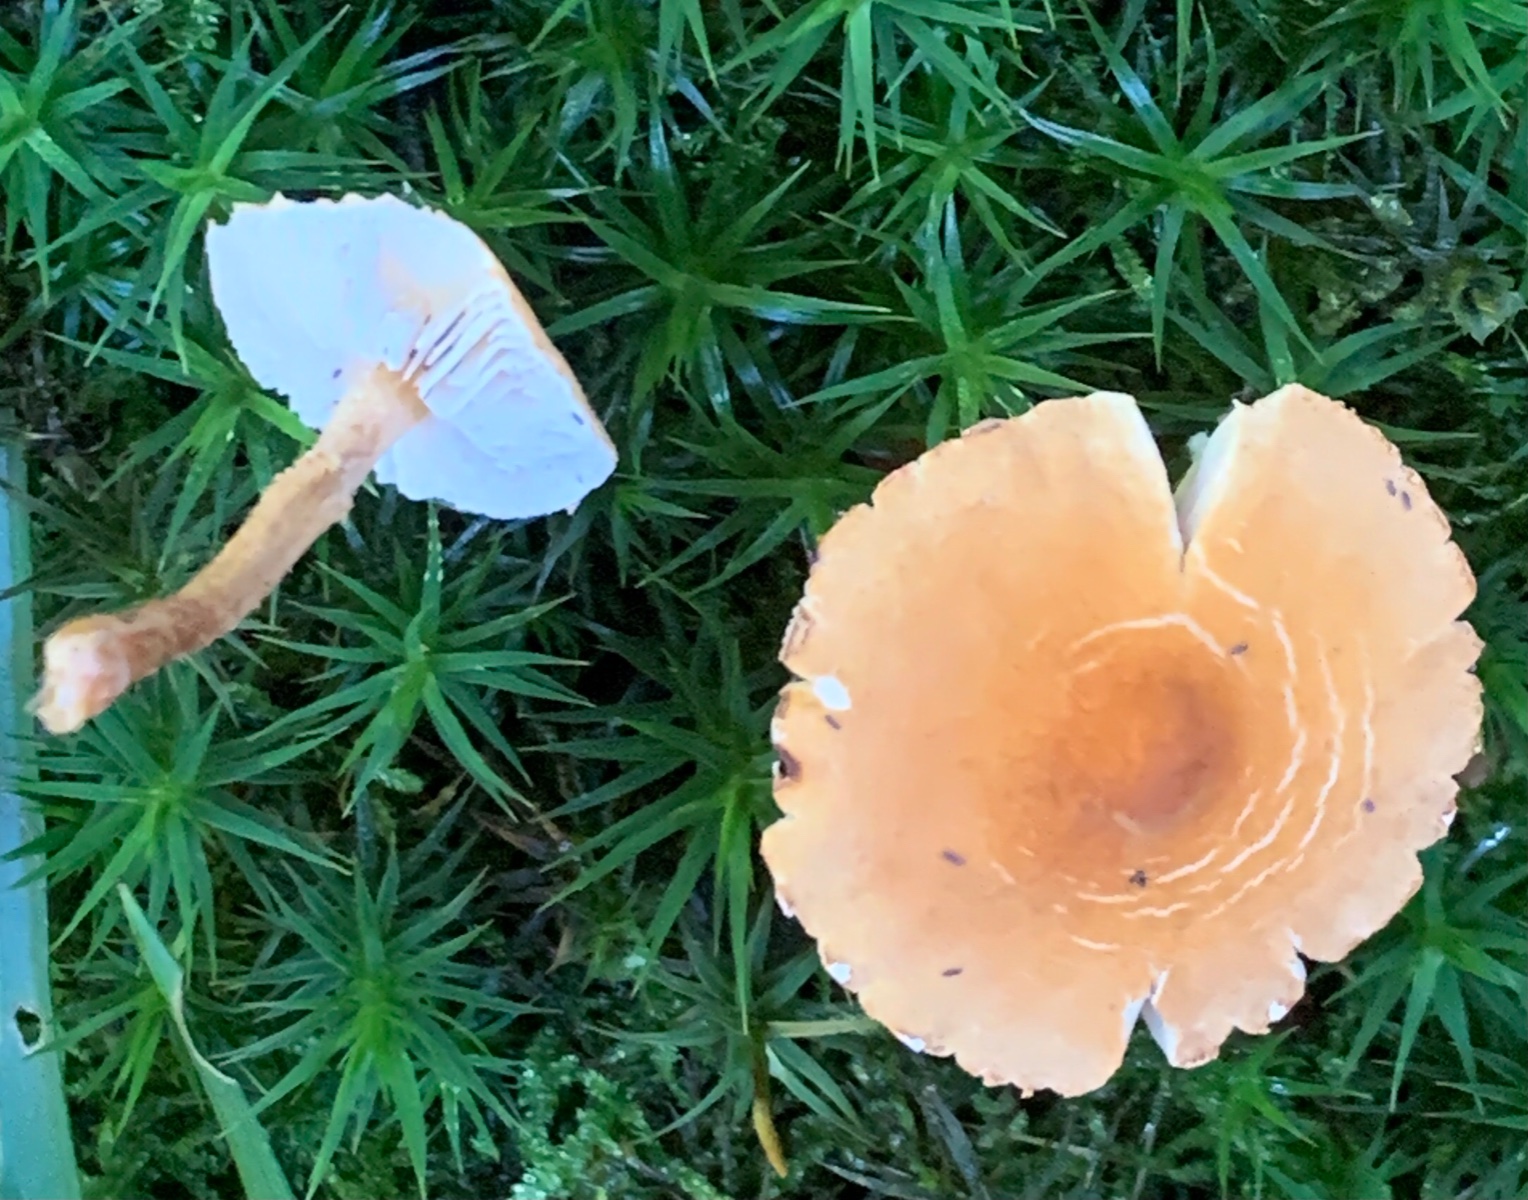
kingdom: Fungi
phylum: Basidiomycota
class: Agaricomycetes
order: Agaricales
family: Tricholomataceae
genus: Cystoderma
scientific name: Cystoderma amianthinum
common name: okkergul grynhat
